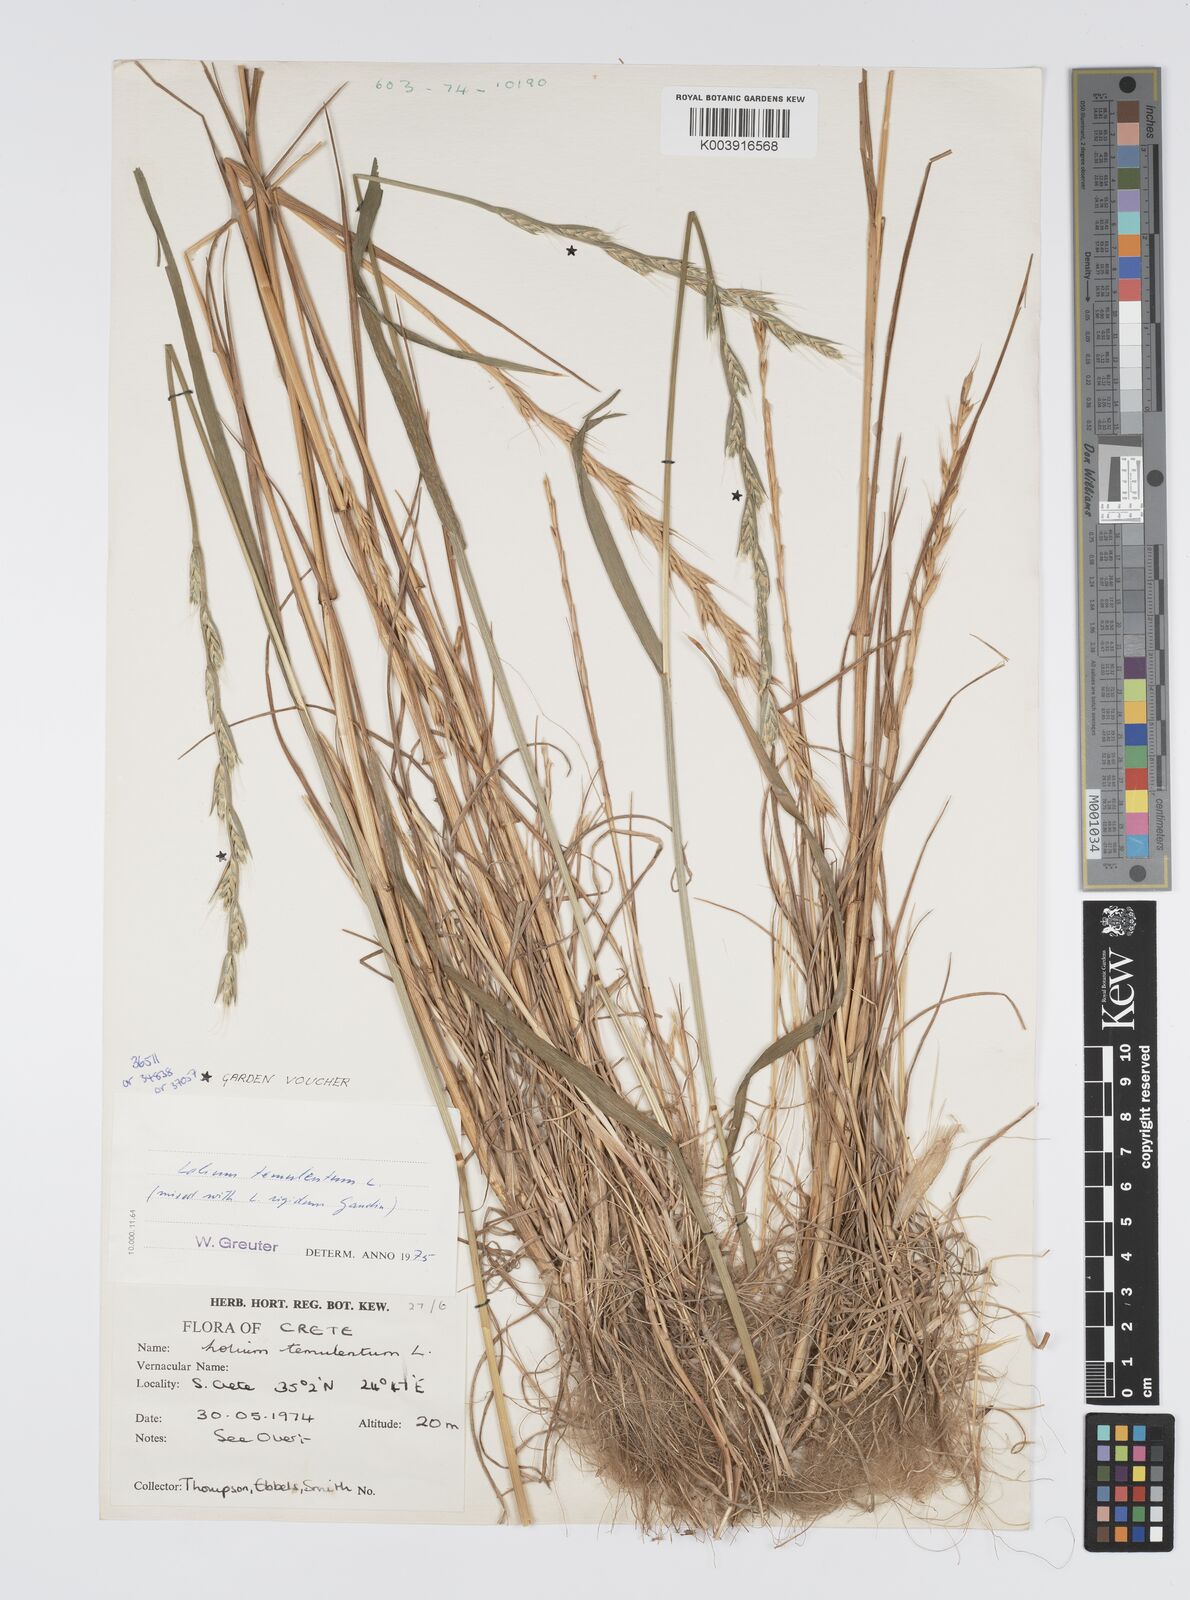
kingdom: Plantae
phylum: Tracheophyta
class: Liliopsida
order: Poales
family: Poaceae
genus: Lolium
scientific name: Lolium temulentum
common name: Darnel
